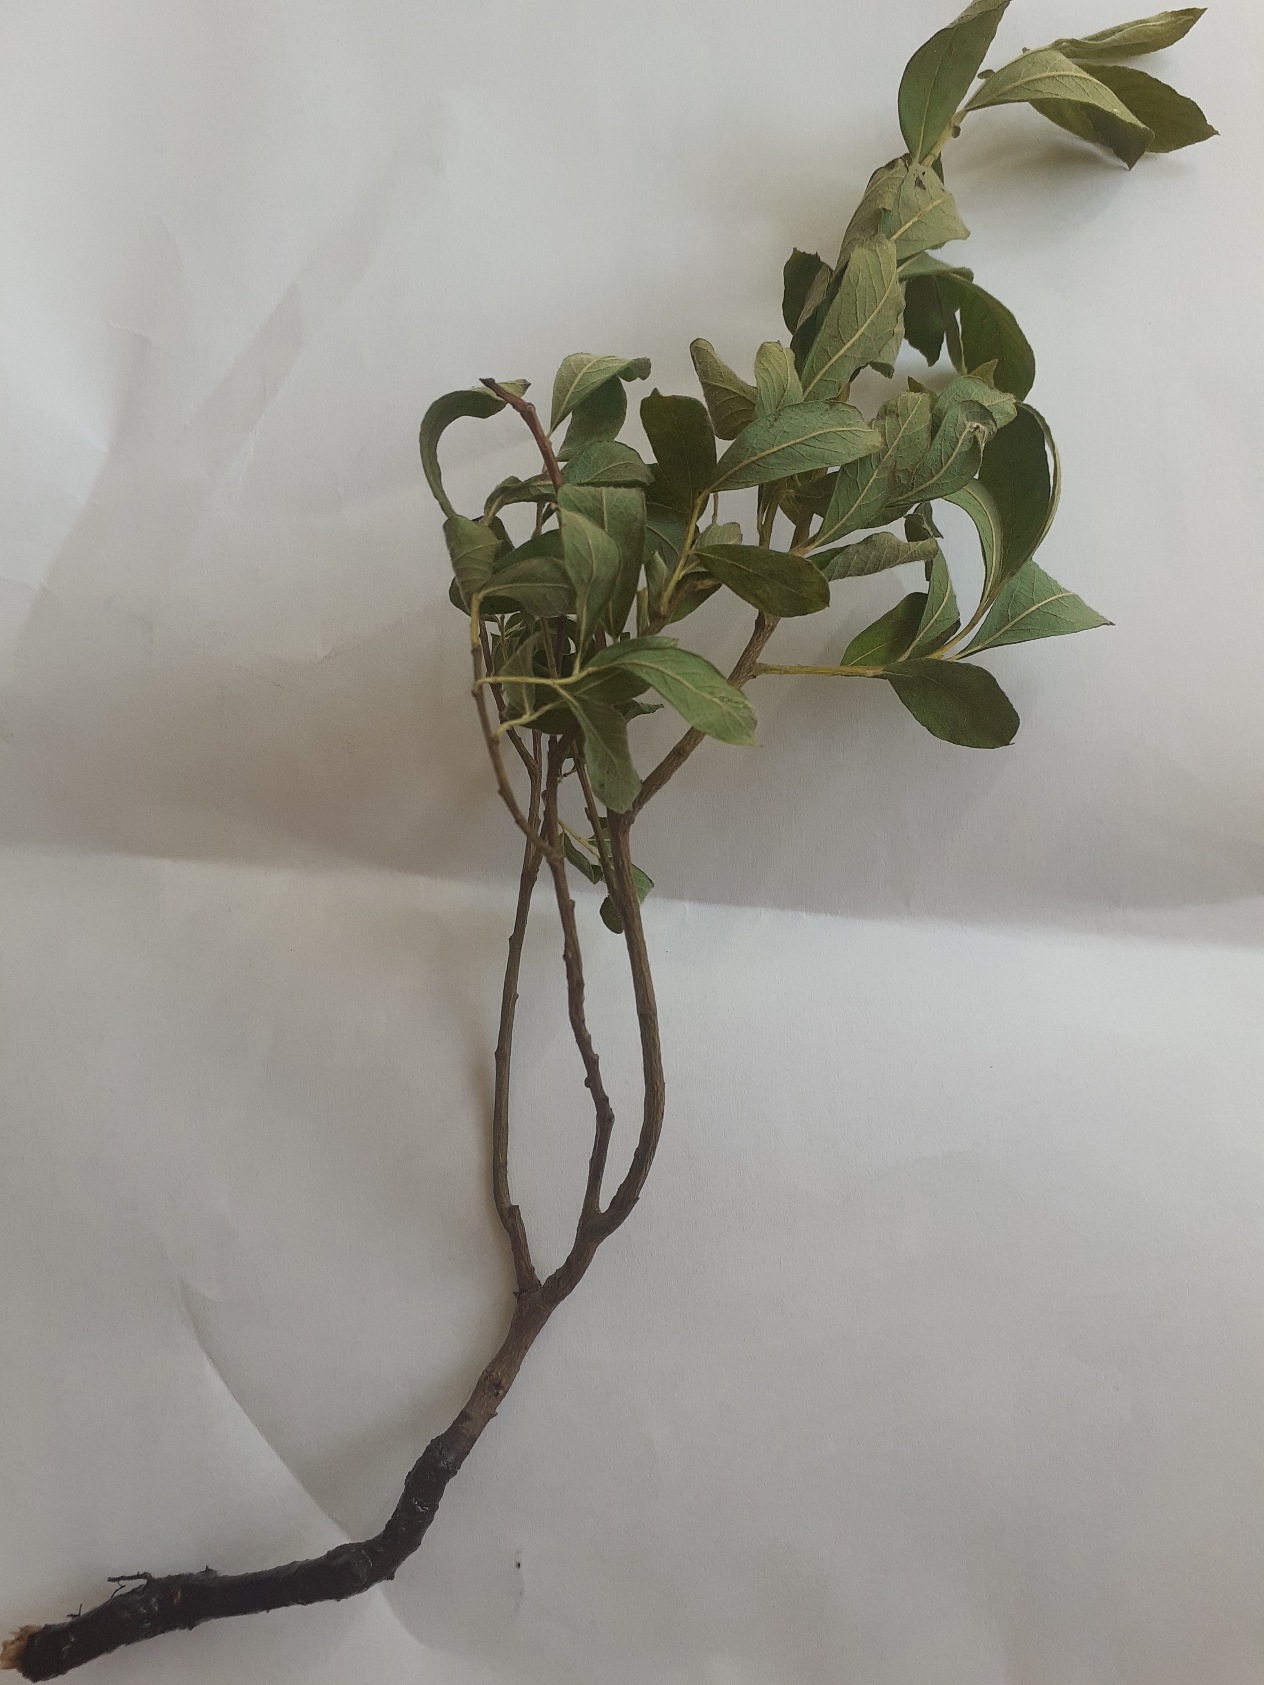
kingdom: Plantae
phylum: Tracheophyta
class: Magnoliopsida
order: Malpighiales
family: Salicaceae
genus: Salix
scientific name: Salix cinerea
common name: Grå-pil
